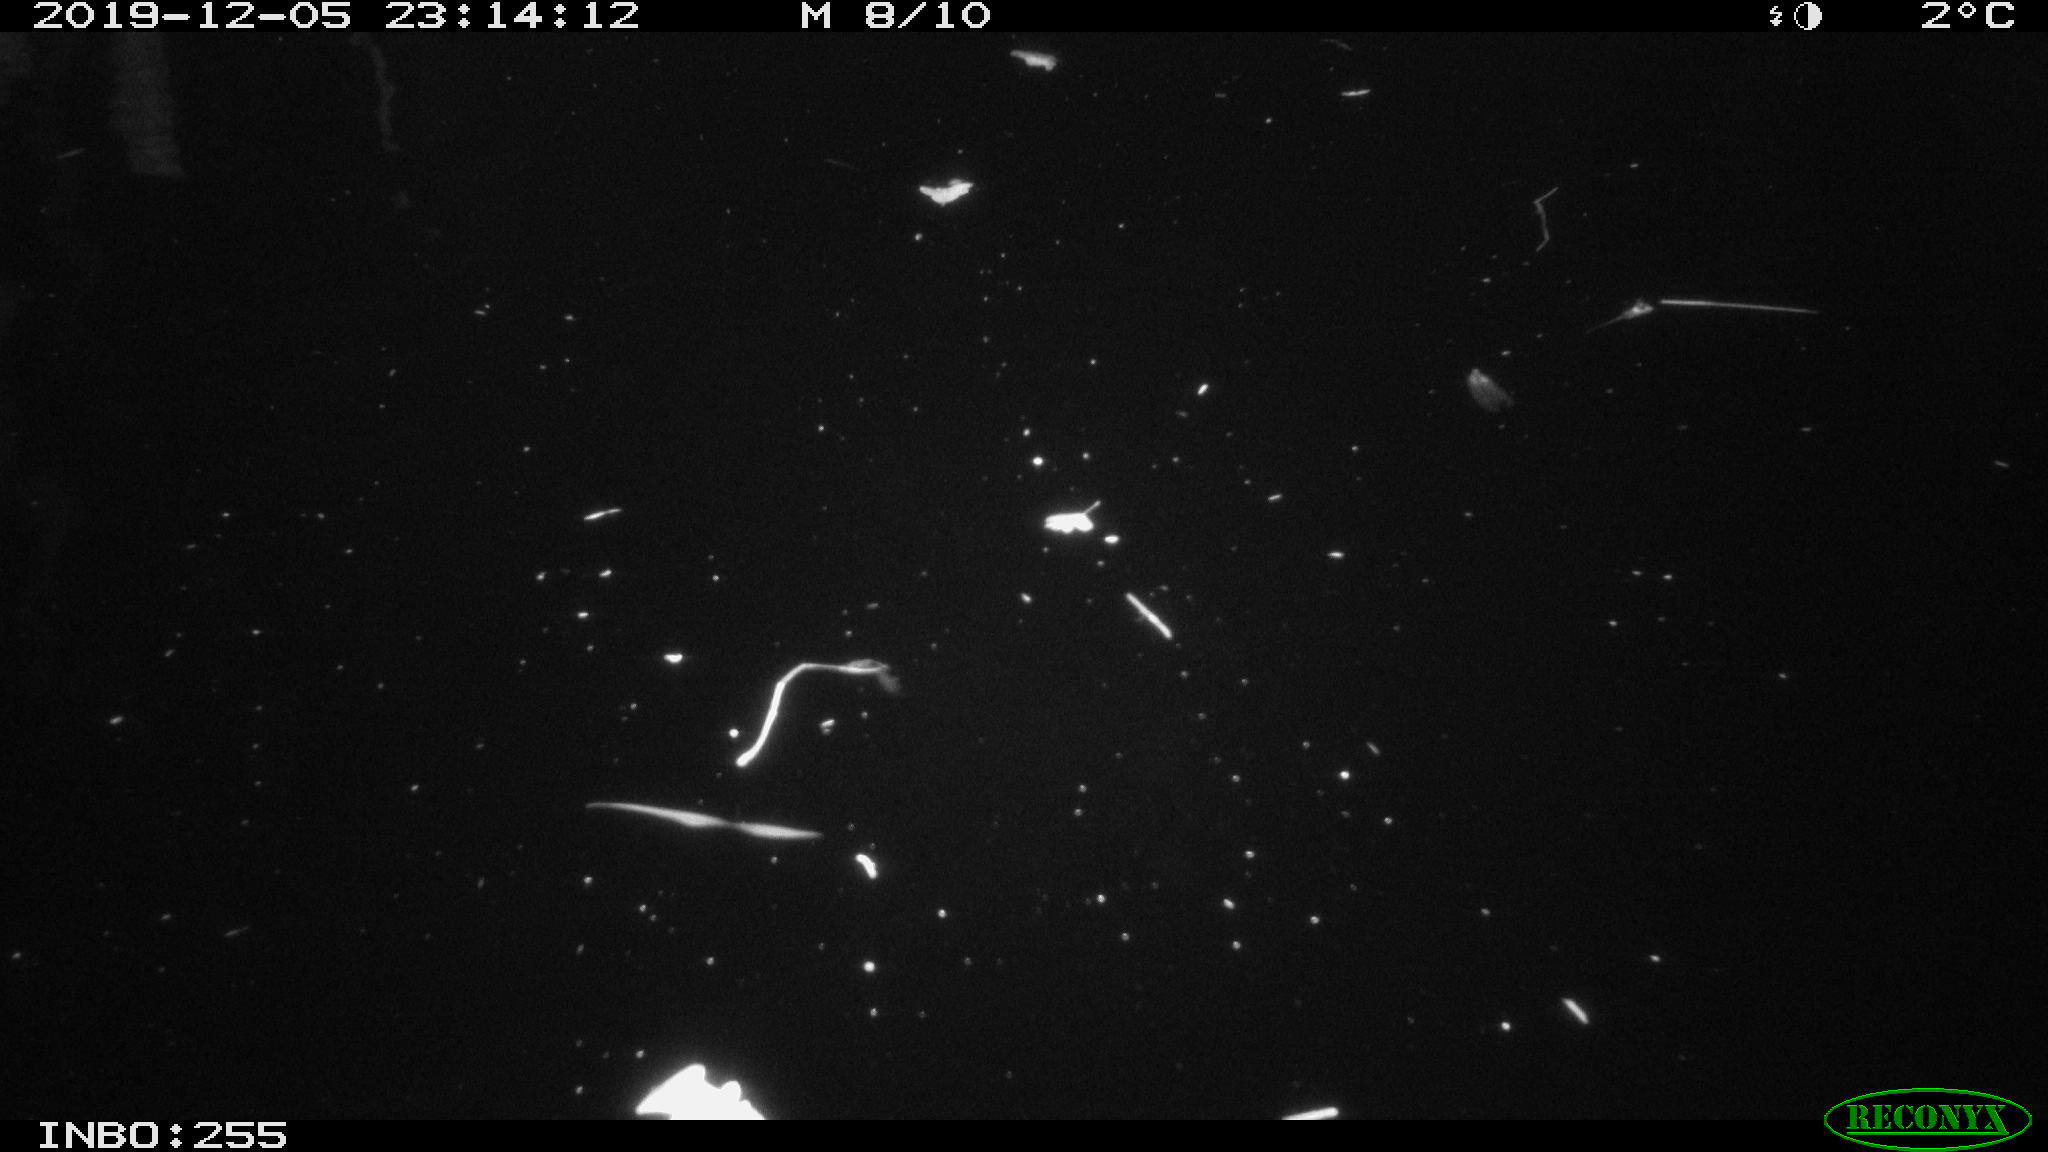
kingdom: Animalia
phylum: Chordata
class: Aves
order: Anseriformes
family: Anatidae
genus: Anas
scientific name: Anas platyrhynchos
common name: Mallard
